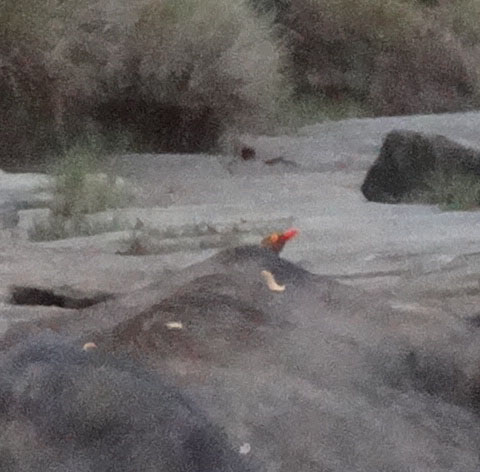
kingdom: Animalia
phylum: Chordata
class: Aves
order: Passeriformes
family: Buphagidae
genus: Buphagus
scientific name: Buphagus erythrorhynchus
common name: Red-billed oxpecker
